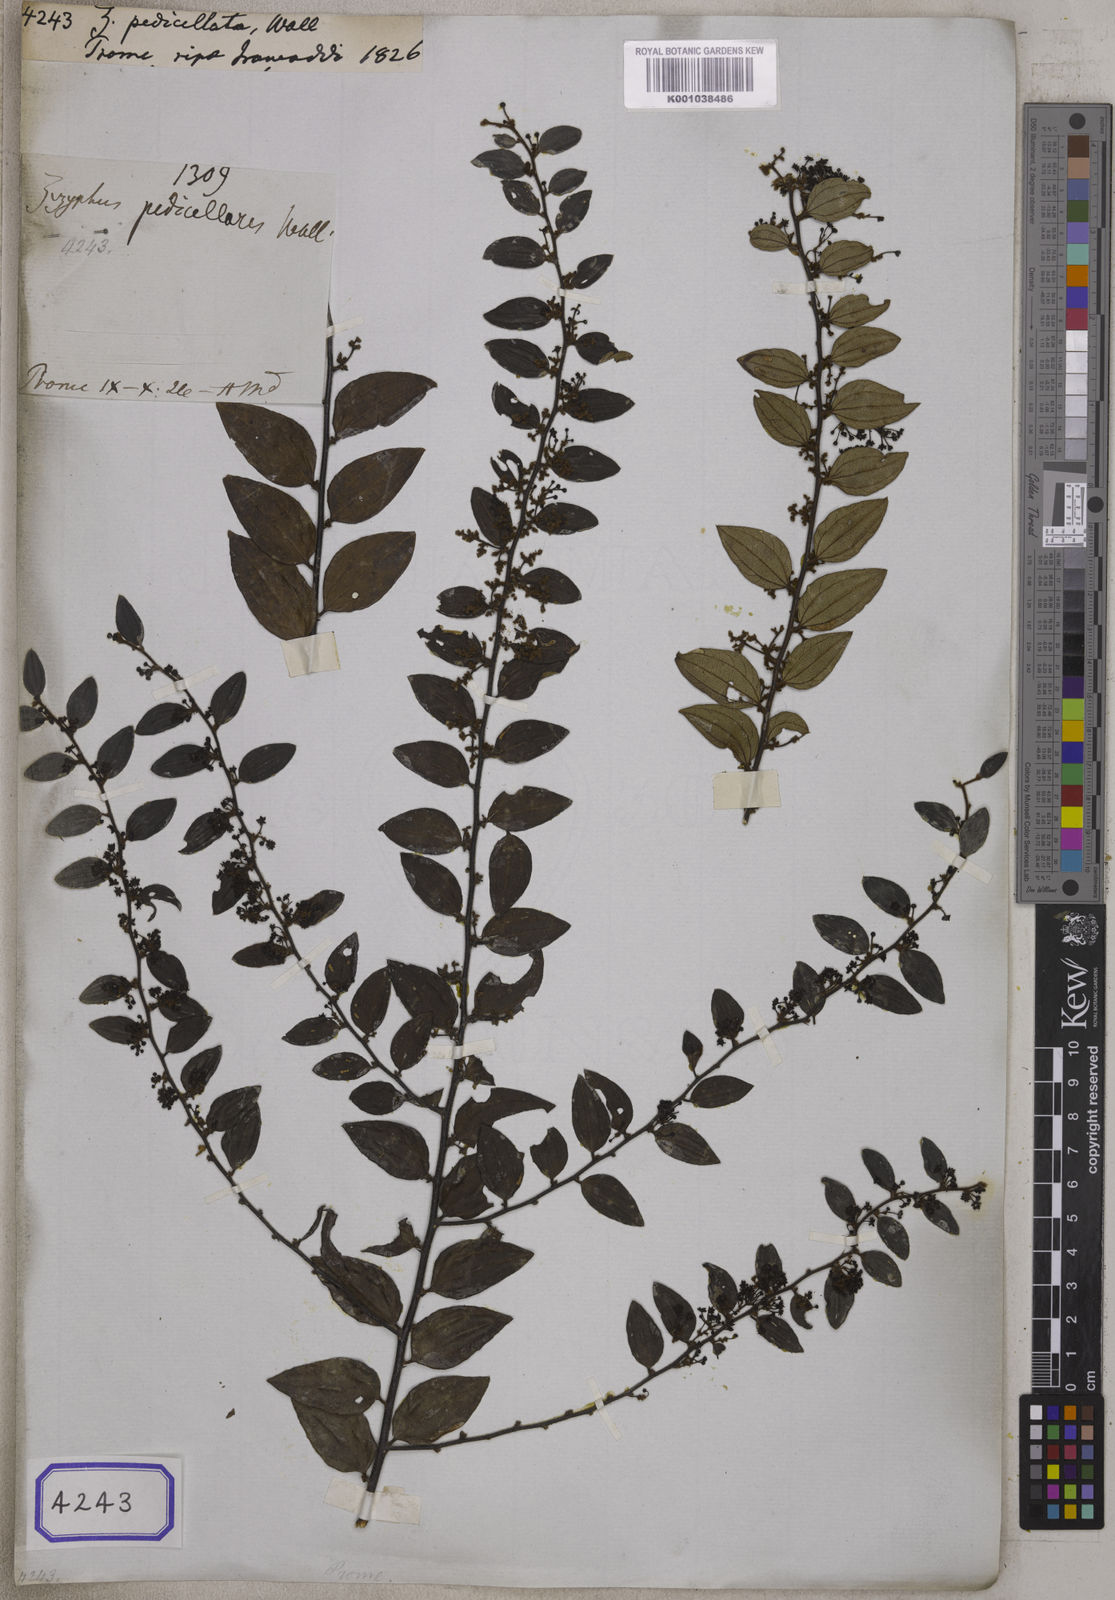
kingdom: Plantae
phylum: Tracheophyta
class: Magnoliopsida
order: Rosales
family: Rhamnaceae
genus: Ziziphus
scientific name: Ziziphus
